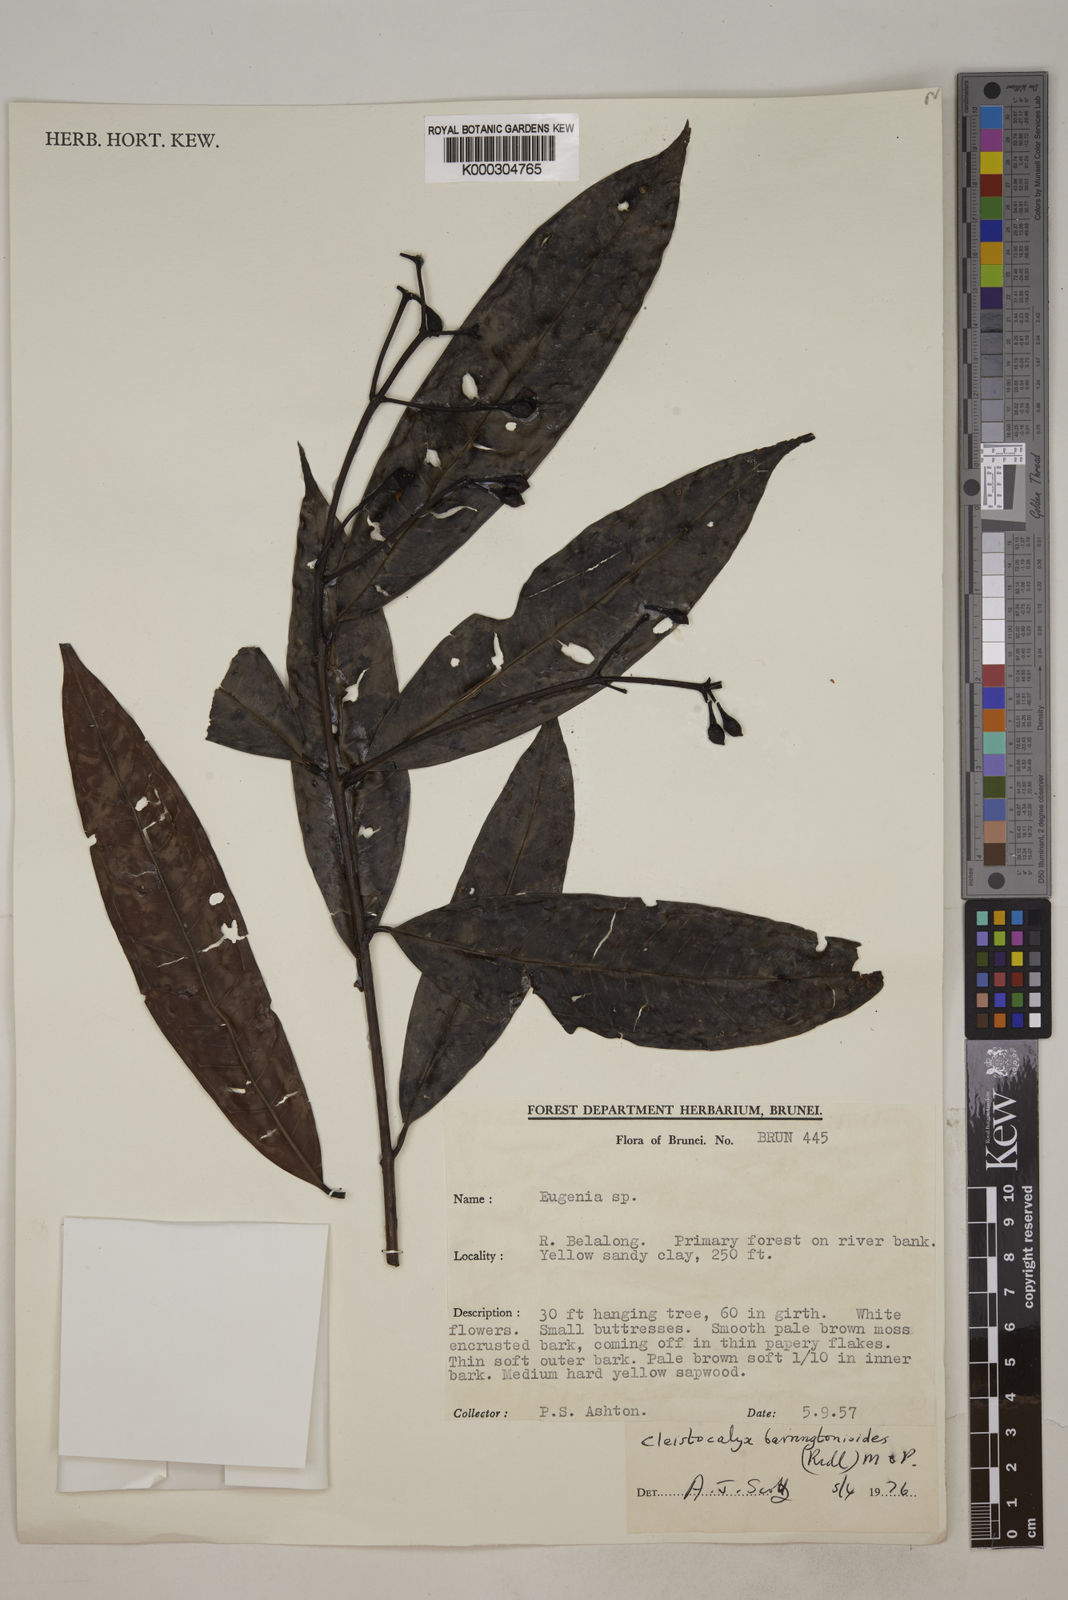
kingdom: Plantae
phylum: Tracheophyta
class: Magnoliopsida
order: Myrtales
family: Myrtaceae
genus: Syzygium
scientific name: Syzygium
